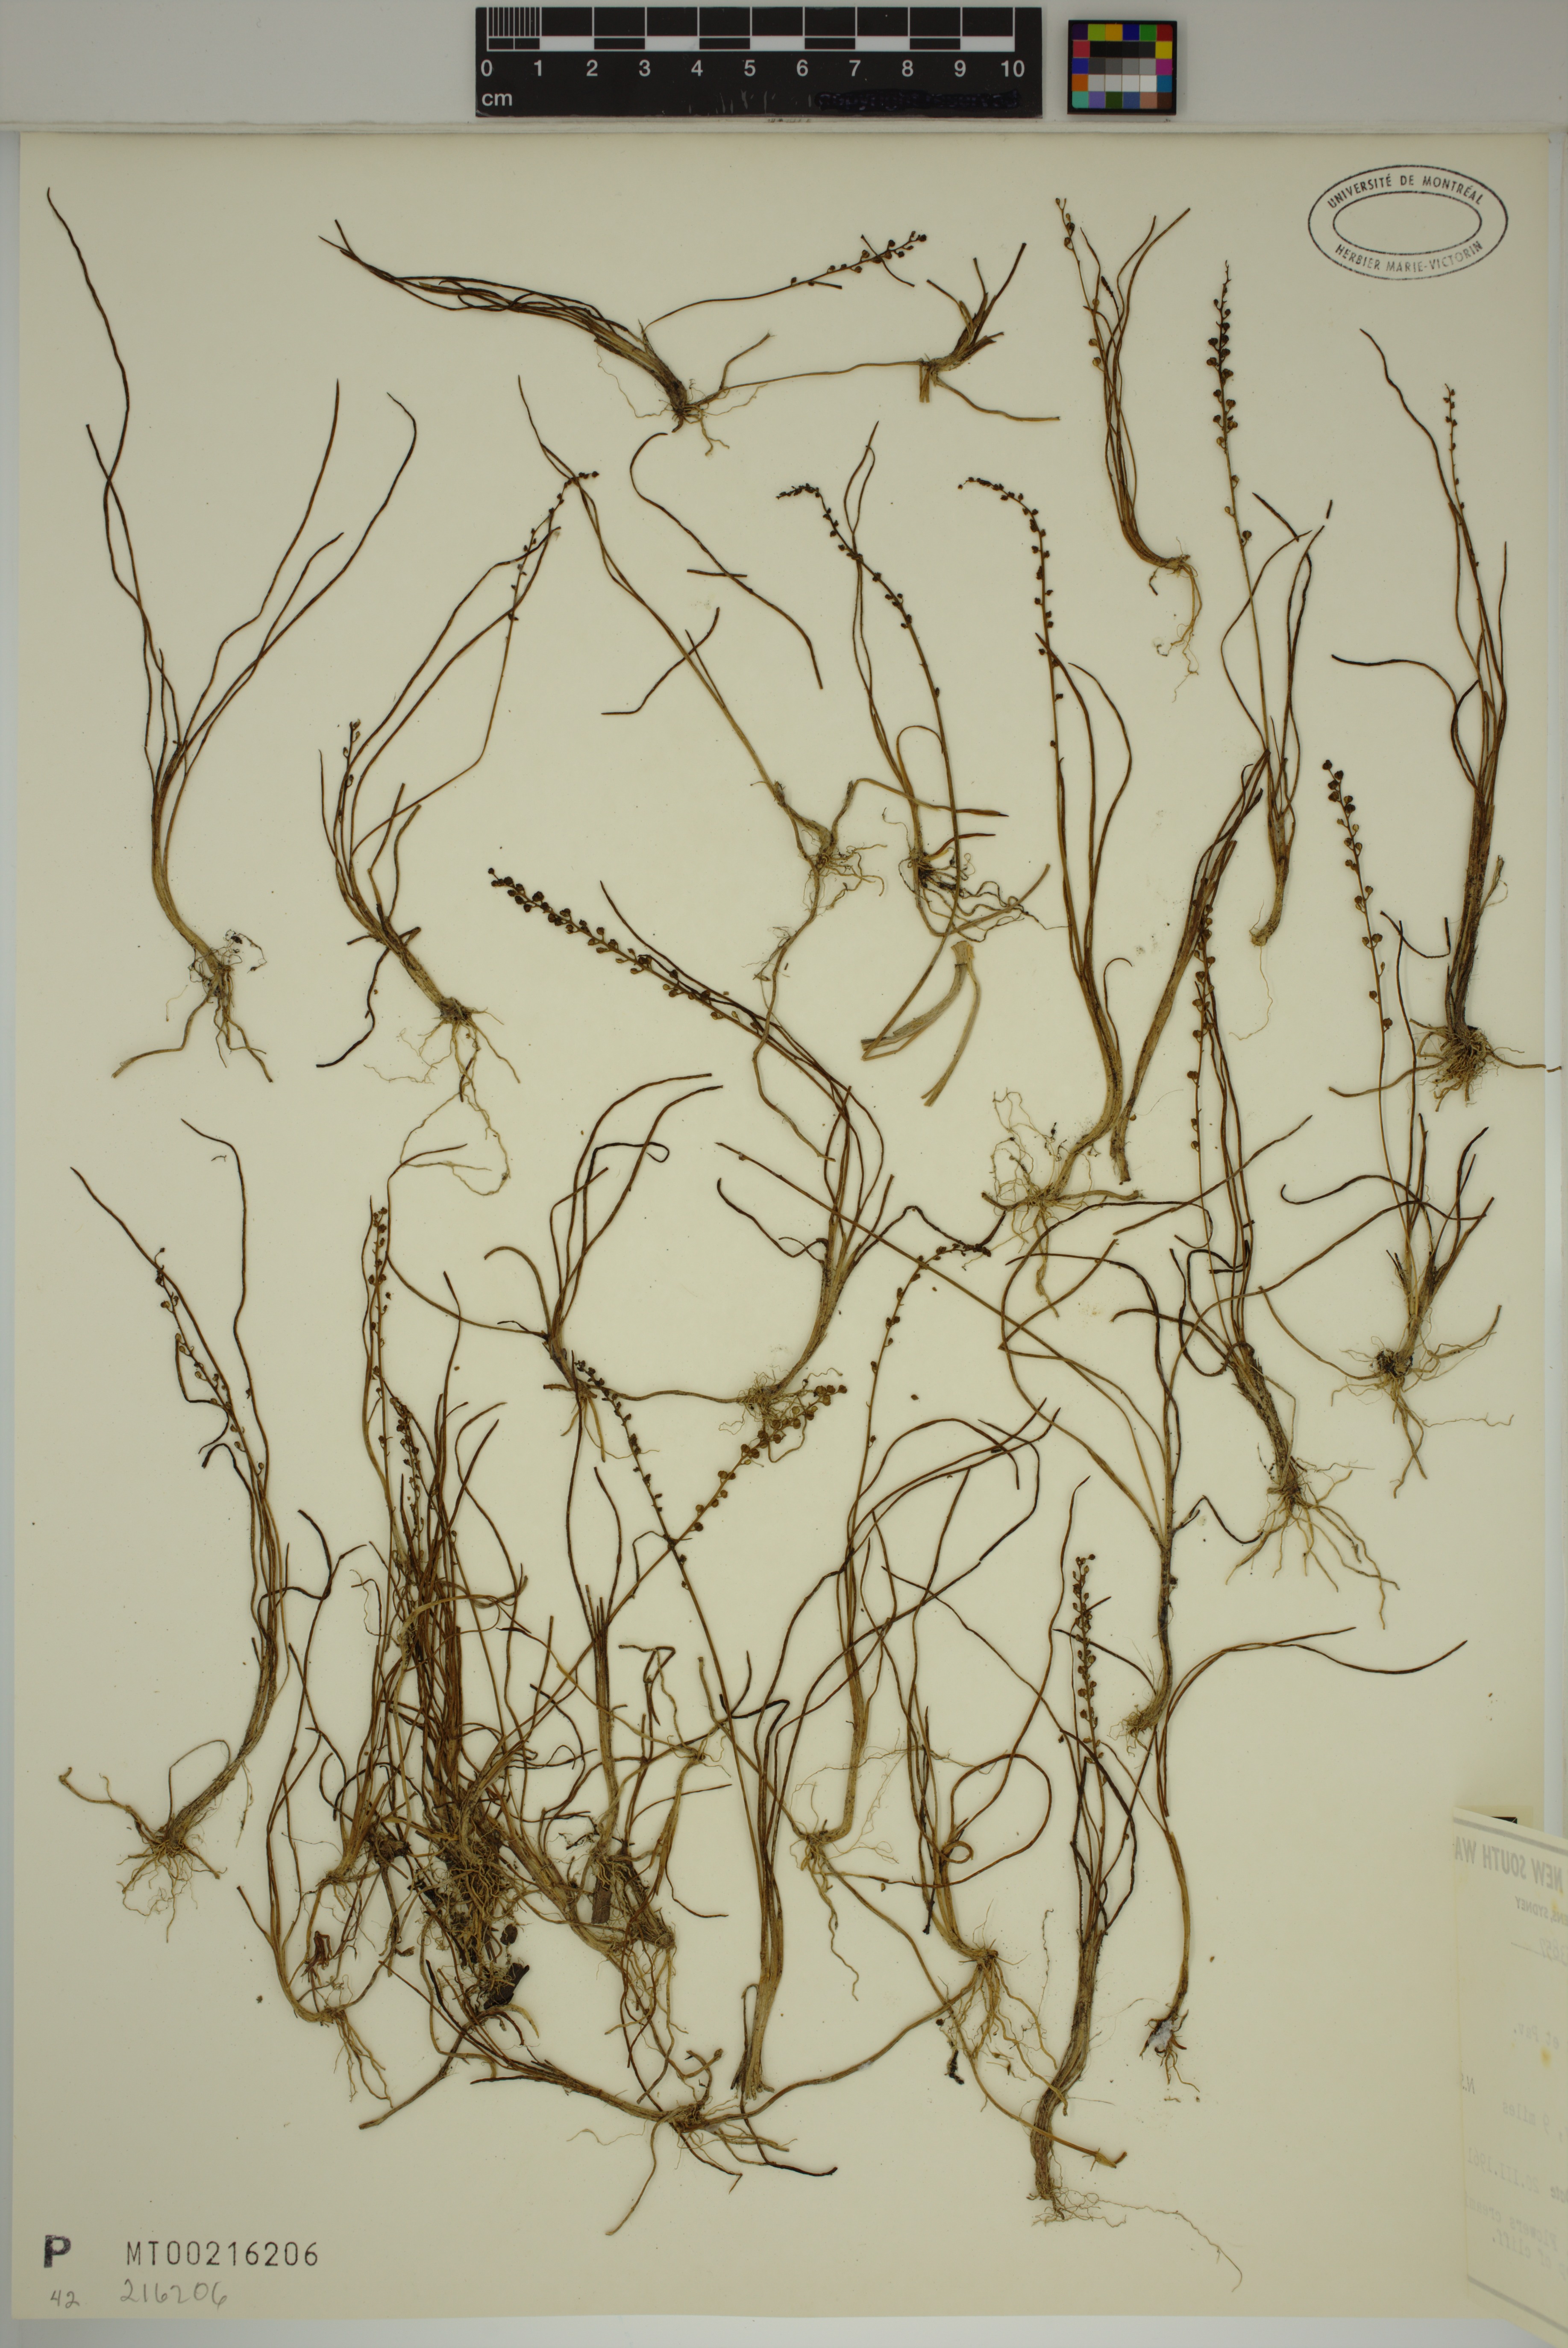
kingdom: Plantae
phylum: Tracheophyta
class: Liliopsida
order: Alismatales
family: Juncaginaceae
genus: Triglochin
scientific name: Triglochin striata
